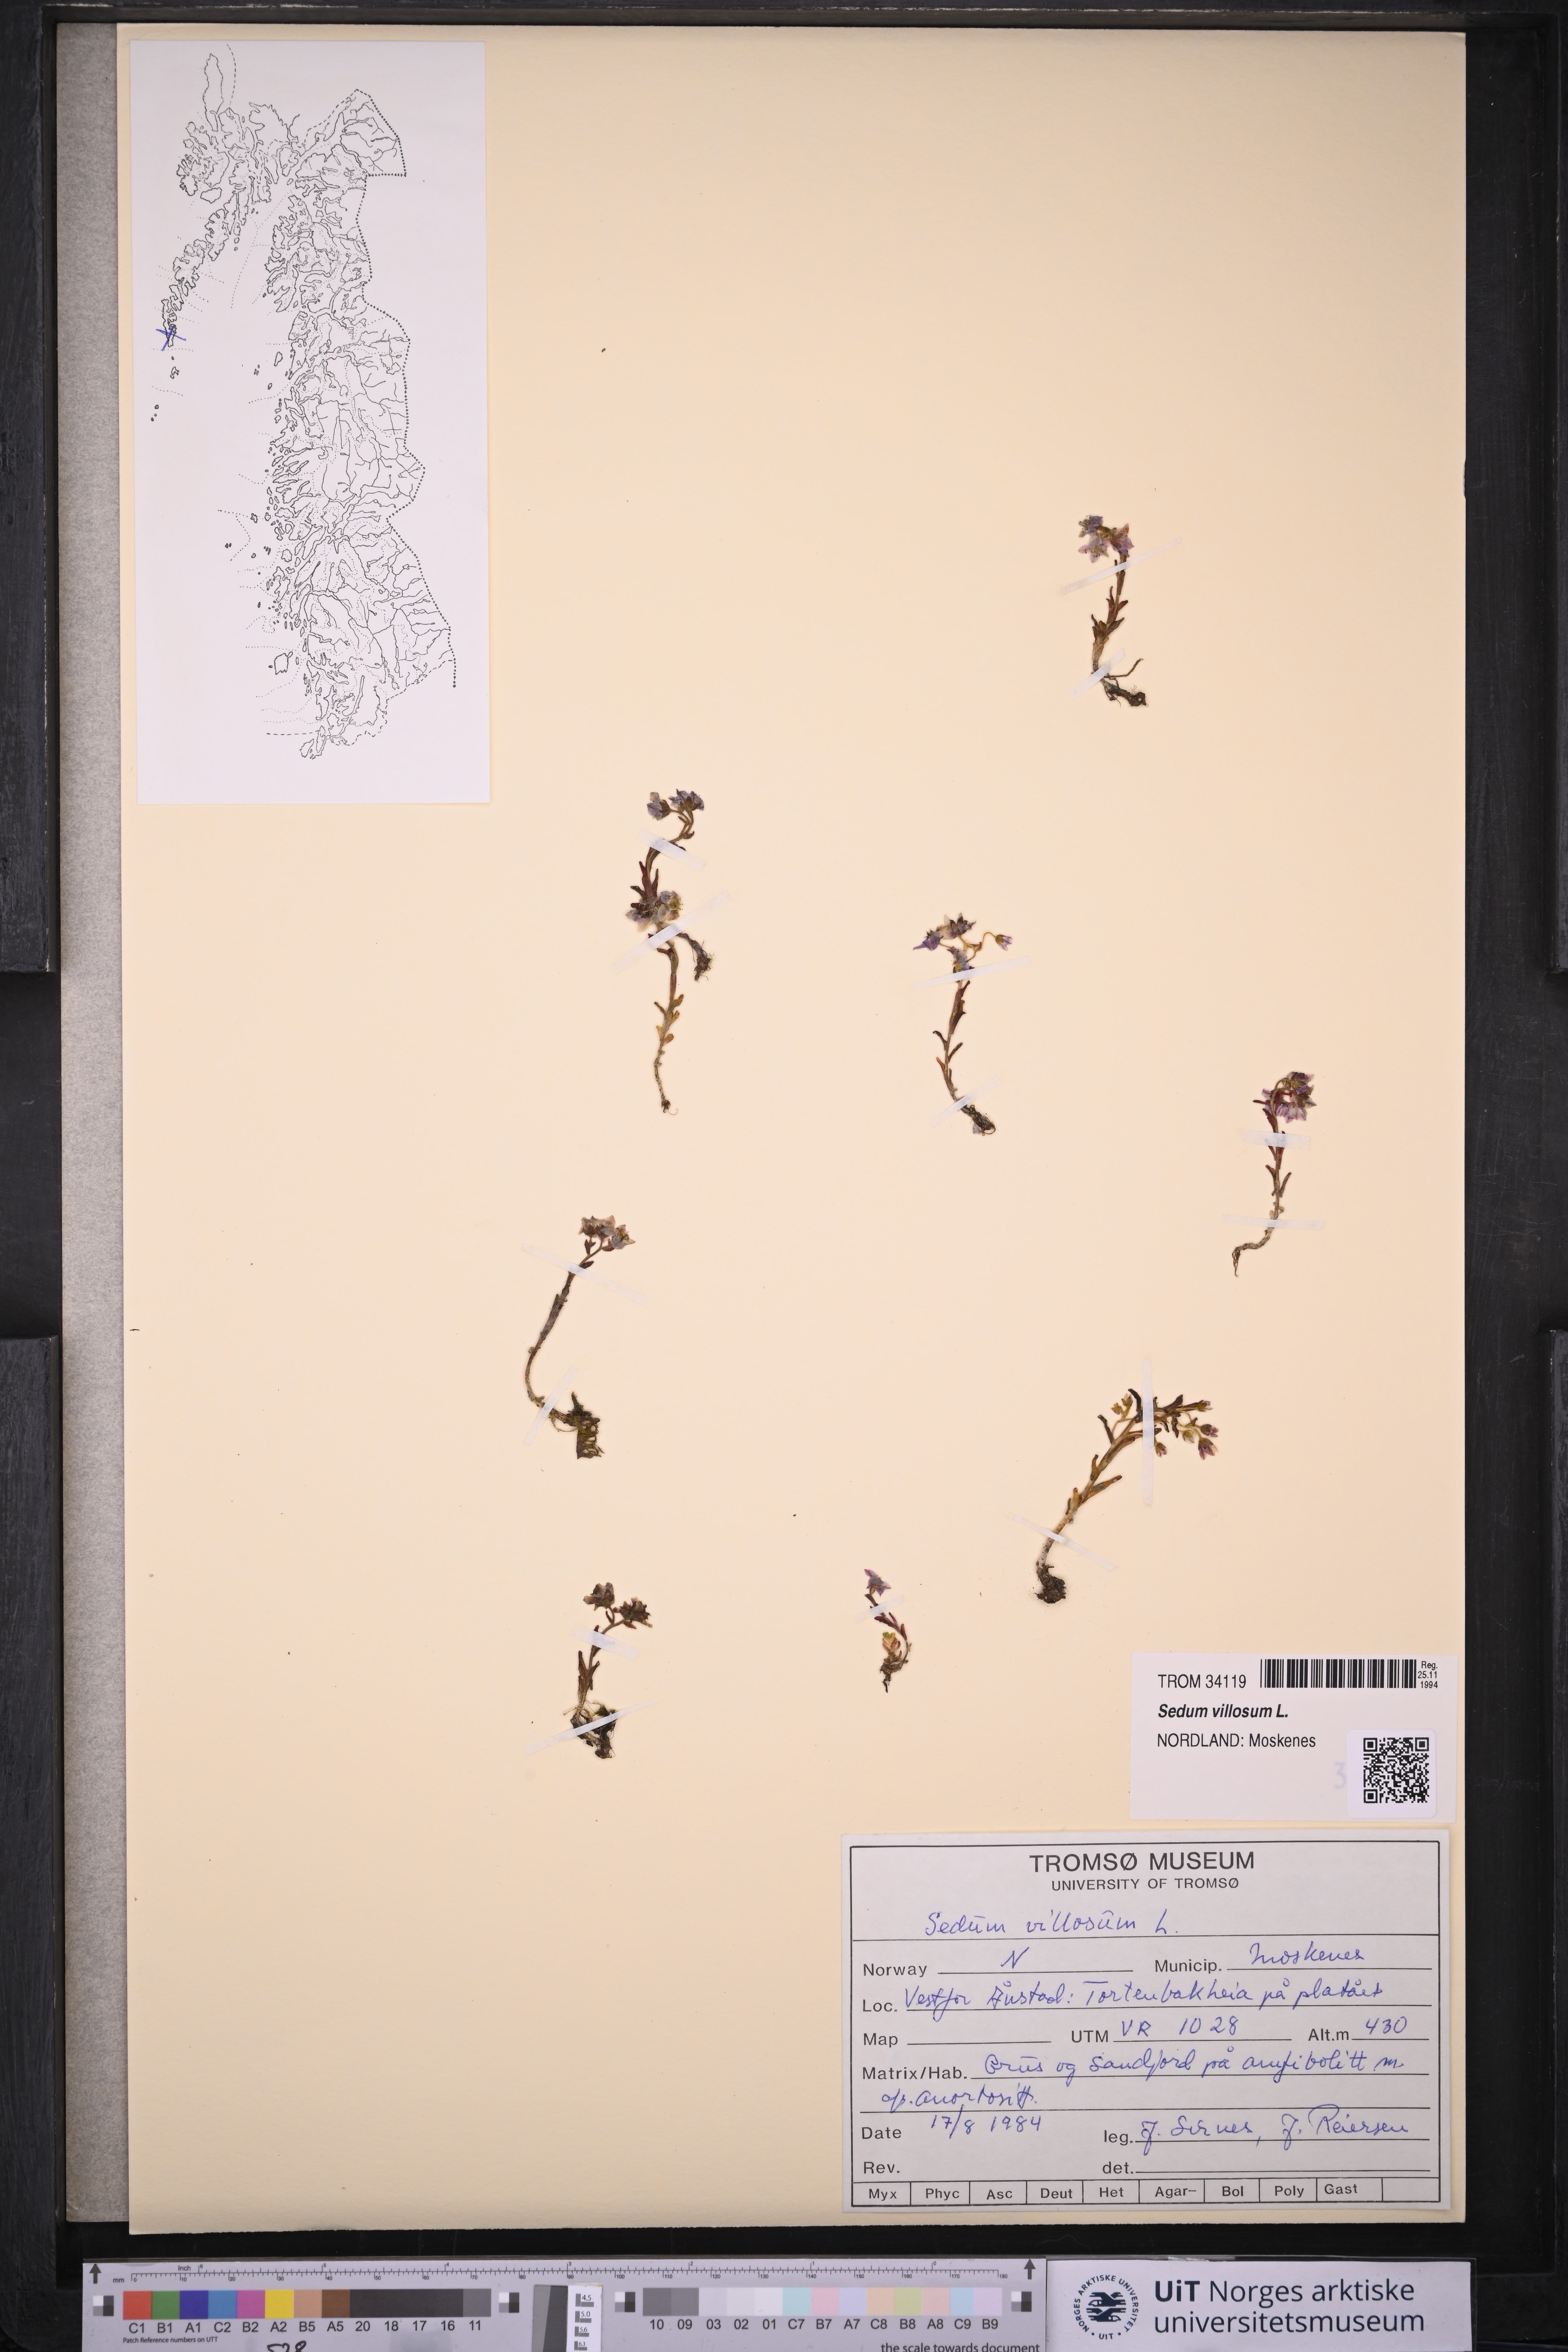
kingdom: Plantae
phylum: Tracheophyta
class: Magnoliopsida
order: Saxifragales
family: Crassulaceae
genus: Sedum
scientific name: Sedum villosum
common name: Hairy stonecrop
